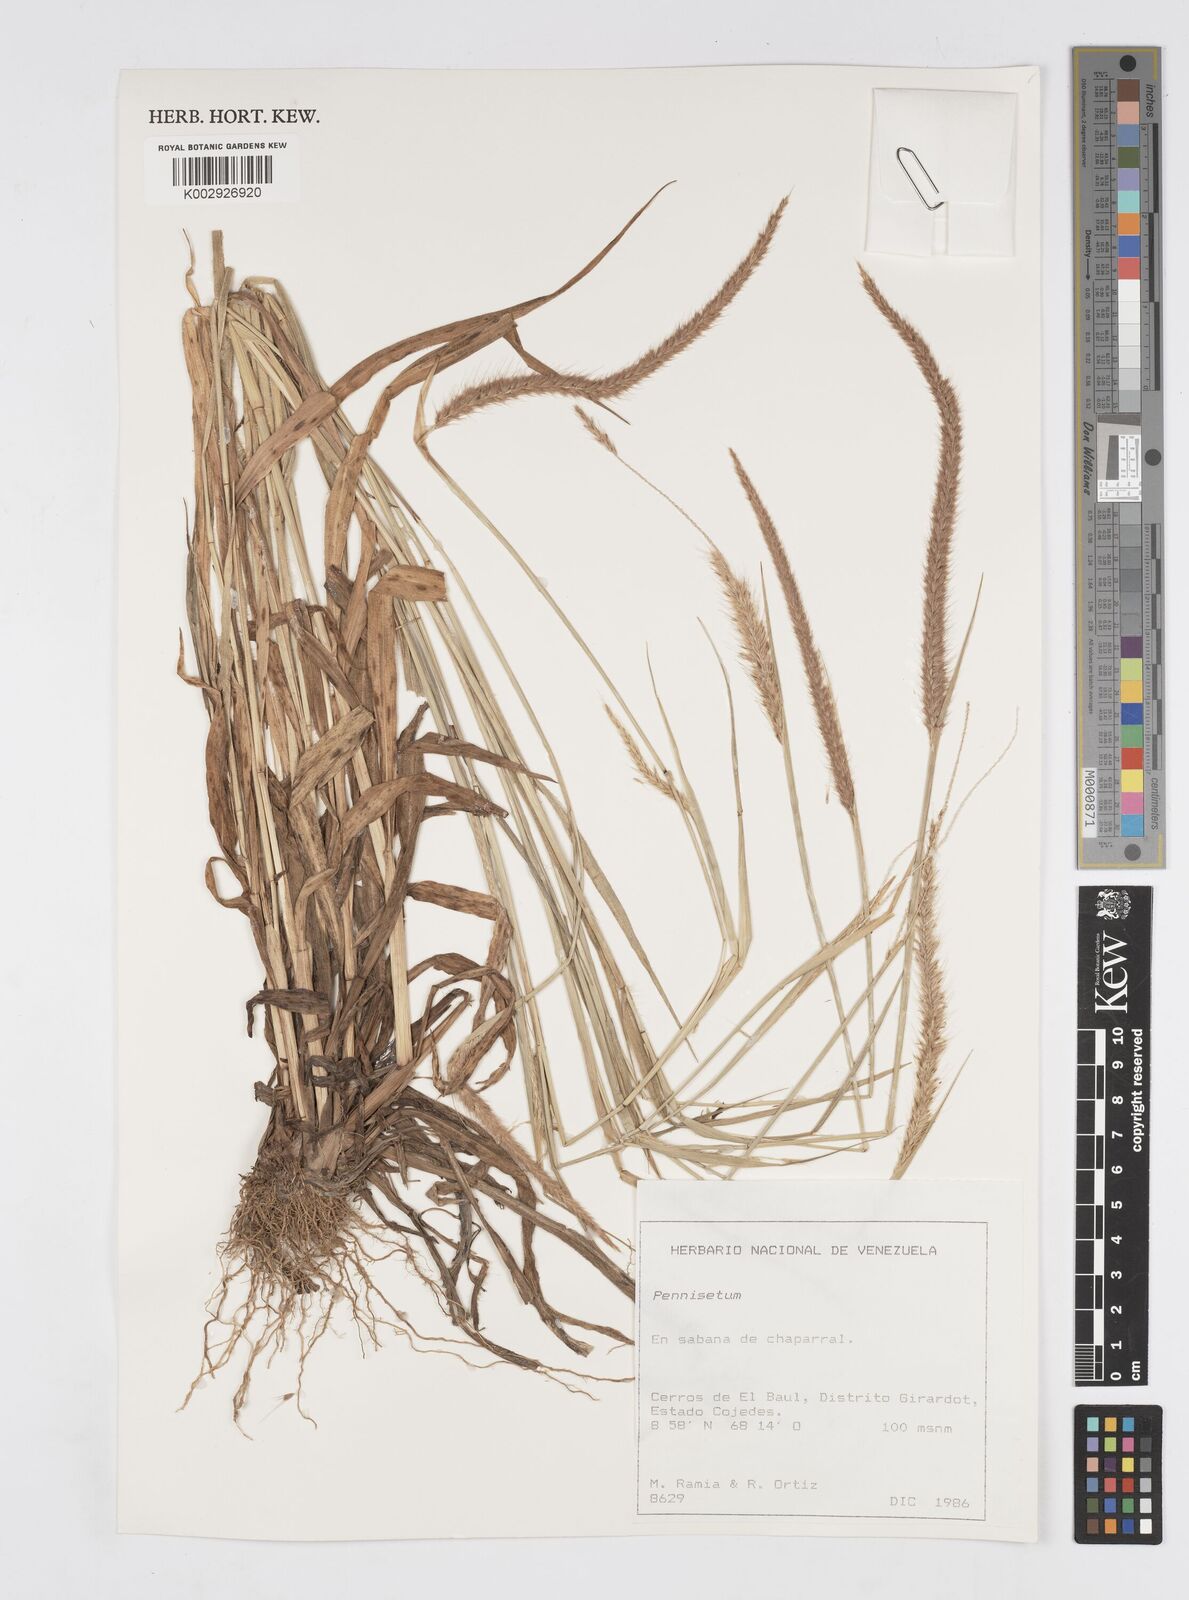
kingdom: Plantae
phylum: Tracheophyta
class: Liliopsida
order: Poales
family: Poaceae
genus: Setaria
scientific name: Setaria parviflora
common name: Knotroot bristle-grass
